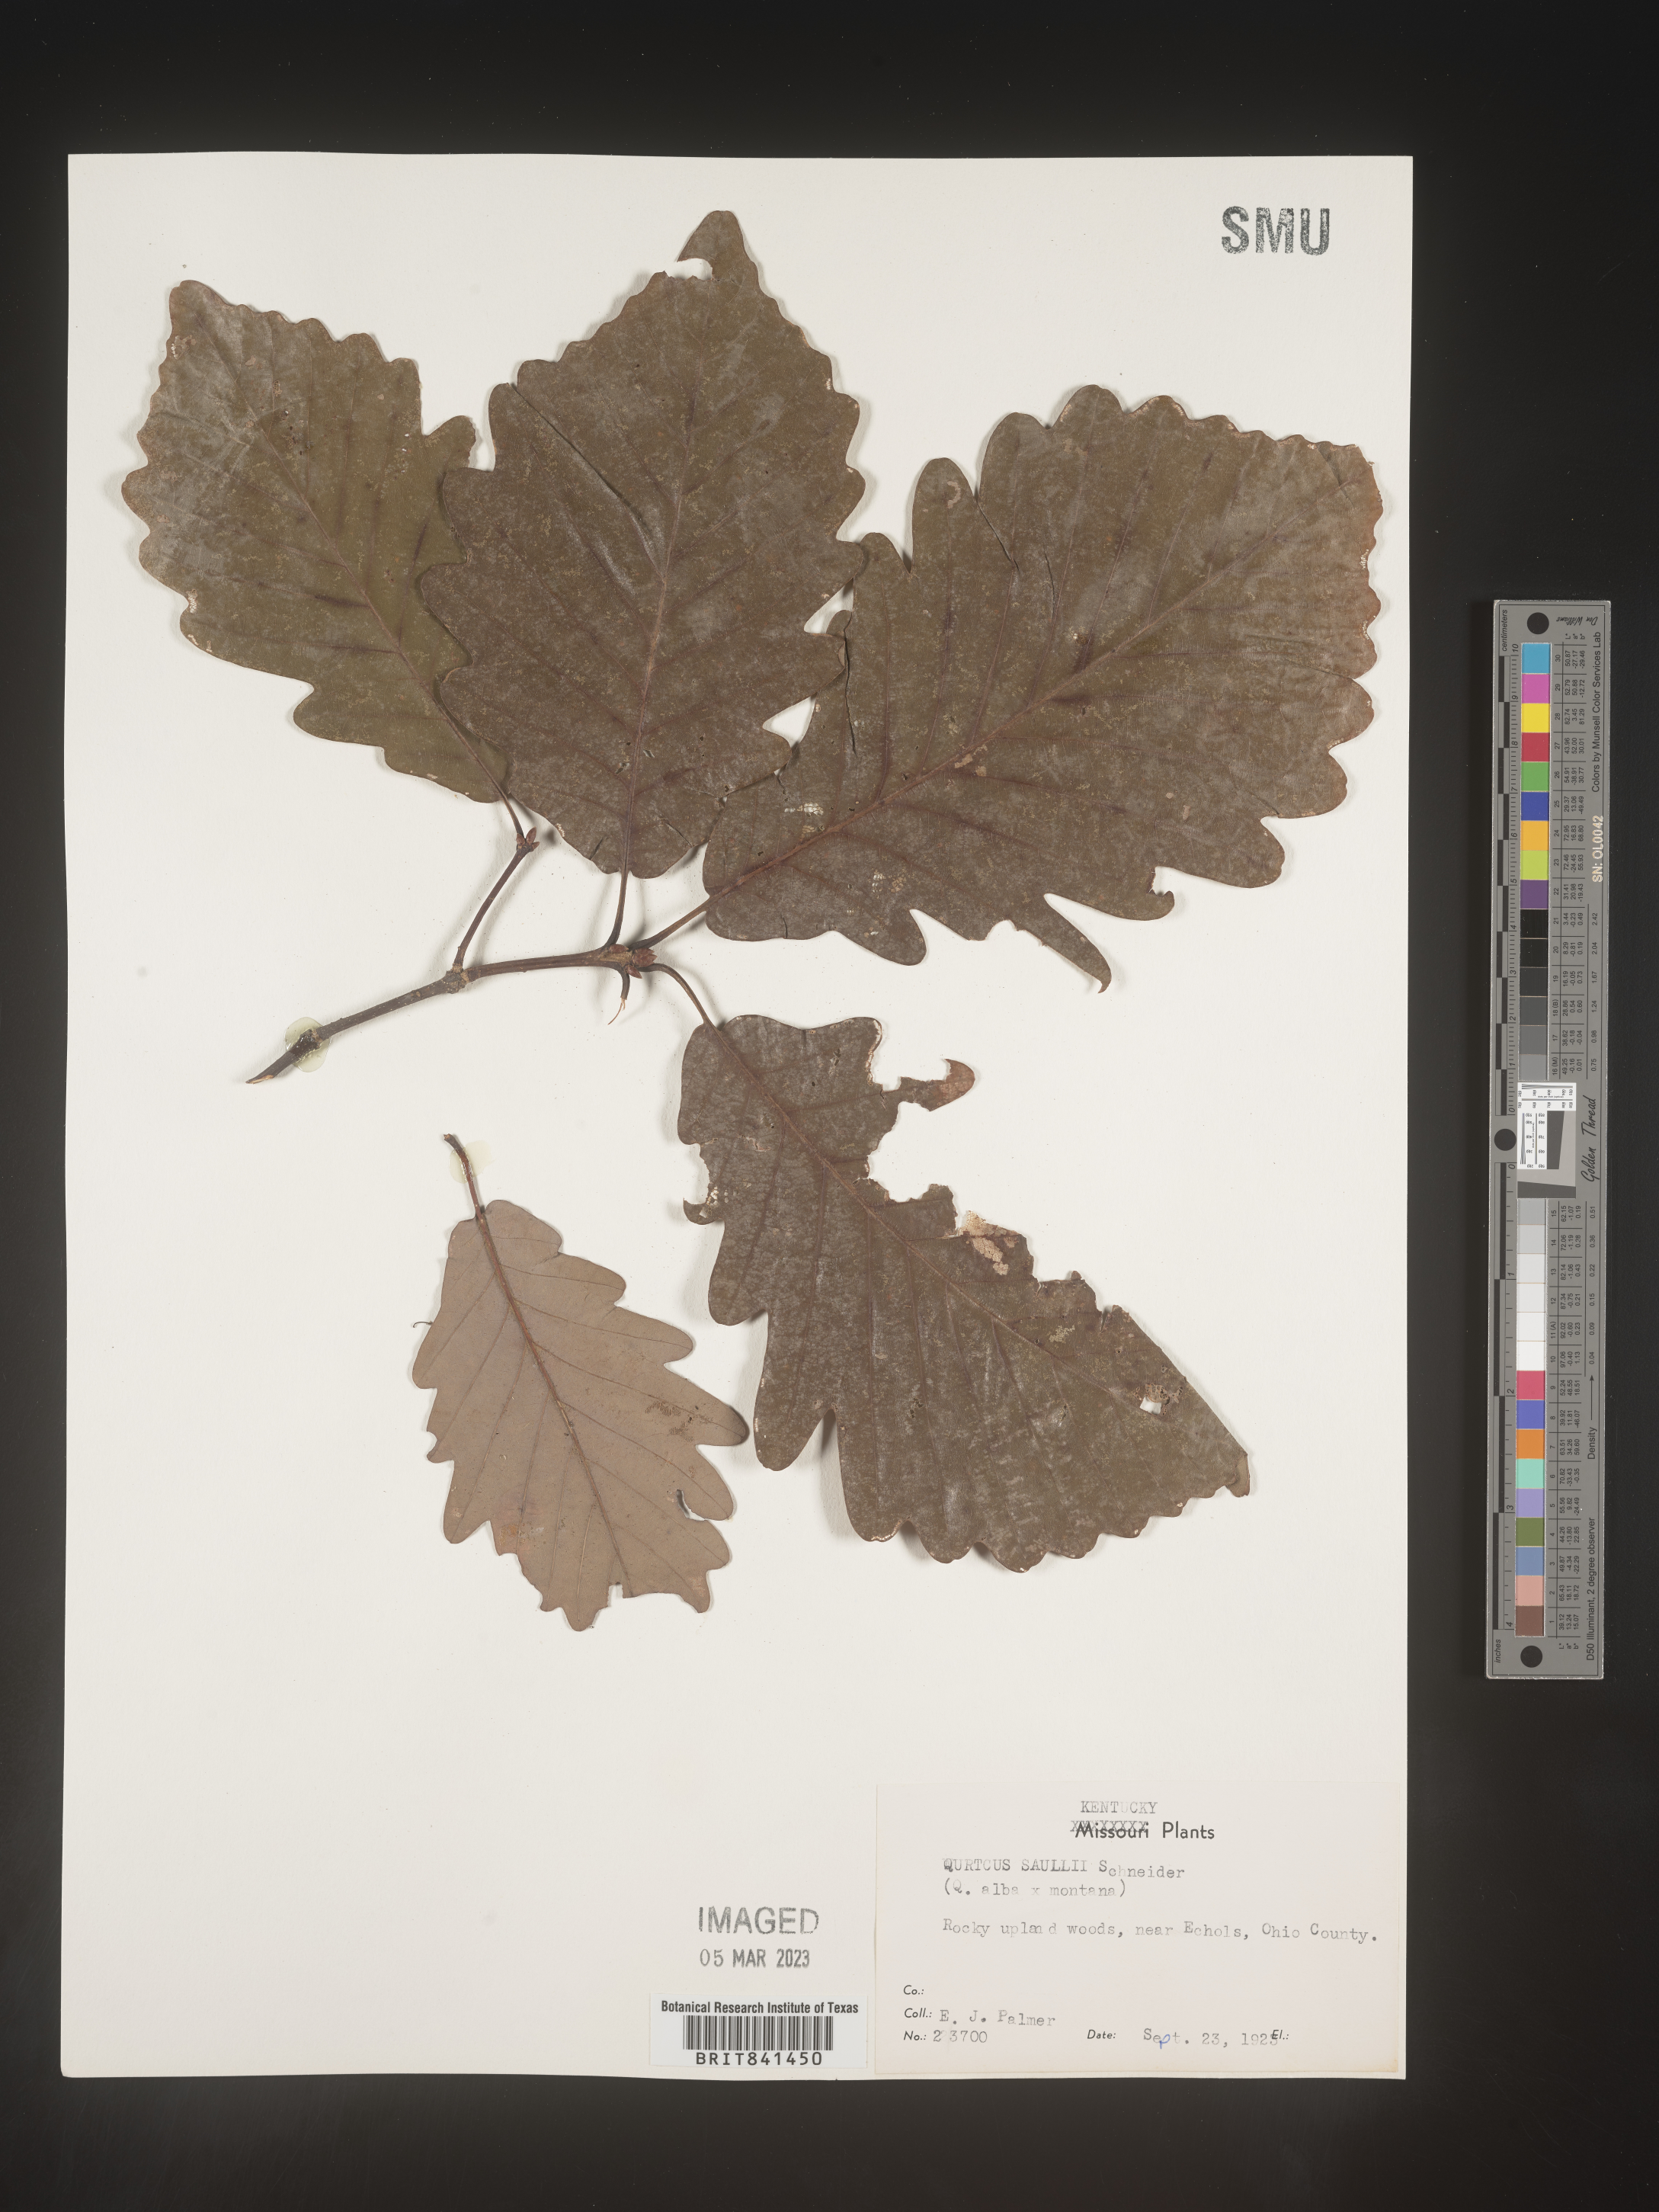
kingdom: Plantae
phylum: Tracheophyta
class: Magnoliopsida
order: Fagales
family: Fagaceae
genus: Quercus
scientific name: Quercus saulii
